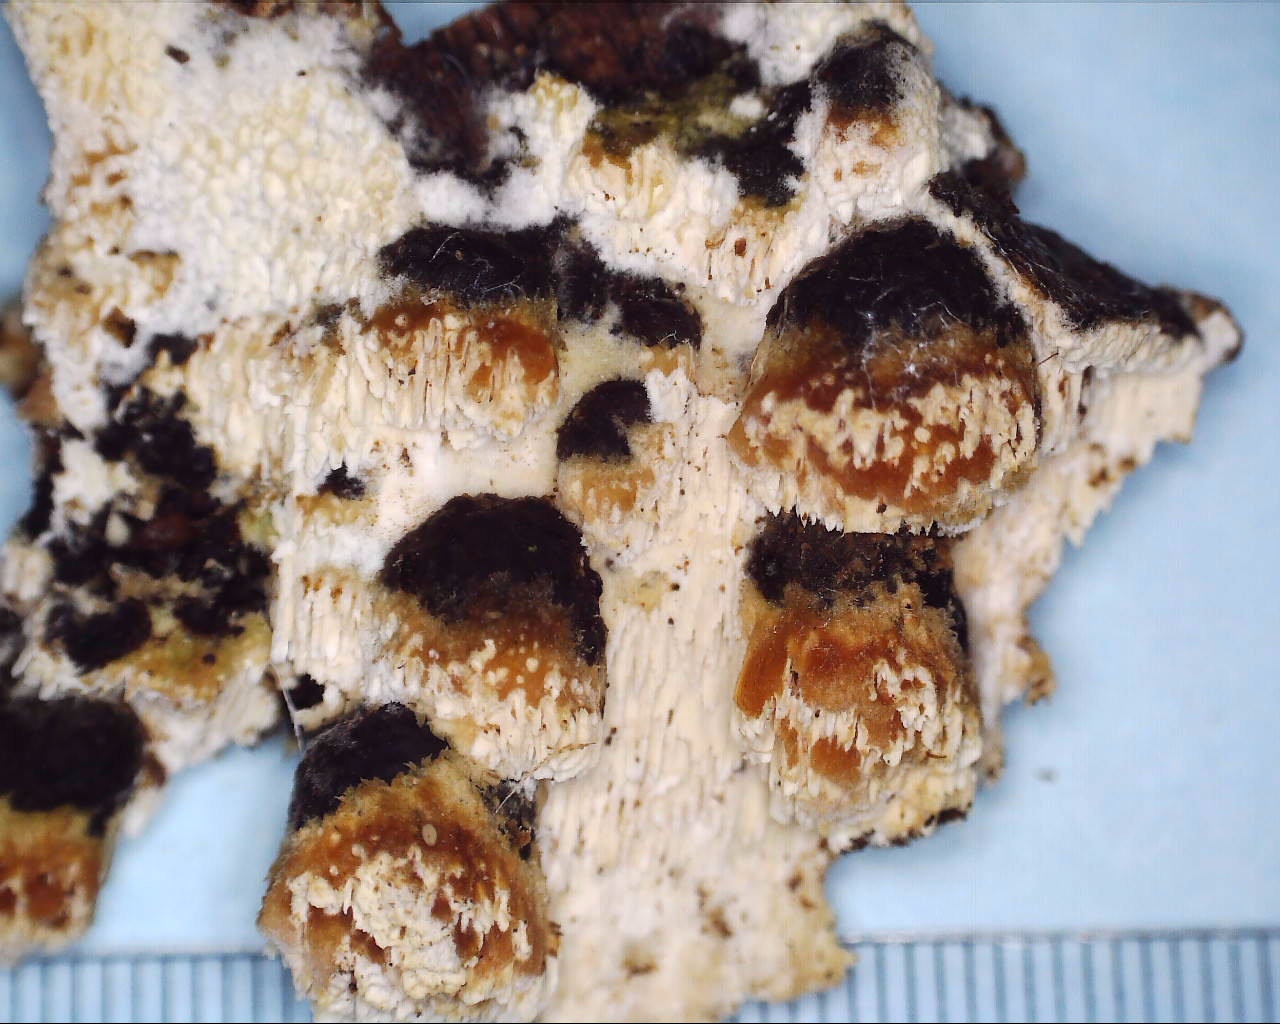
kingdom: Fungi
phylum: Basidiomycota
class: Agaricomycetes
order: Hymenochaetales
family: Schizoporaceae
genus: Xylodon
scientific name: Xylodon
